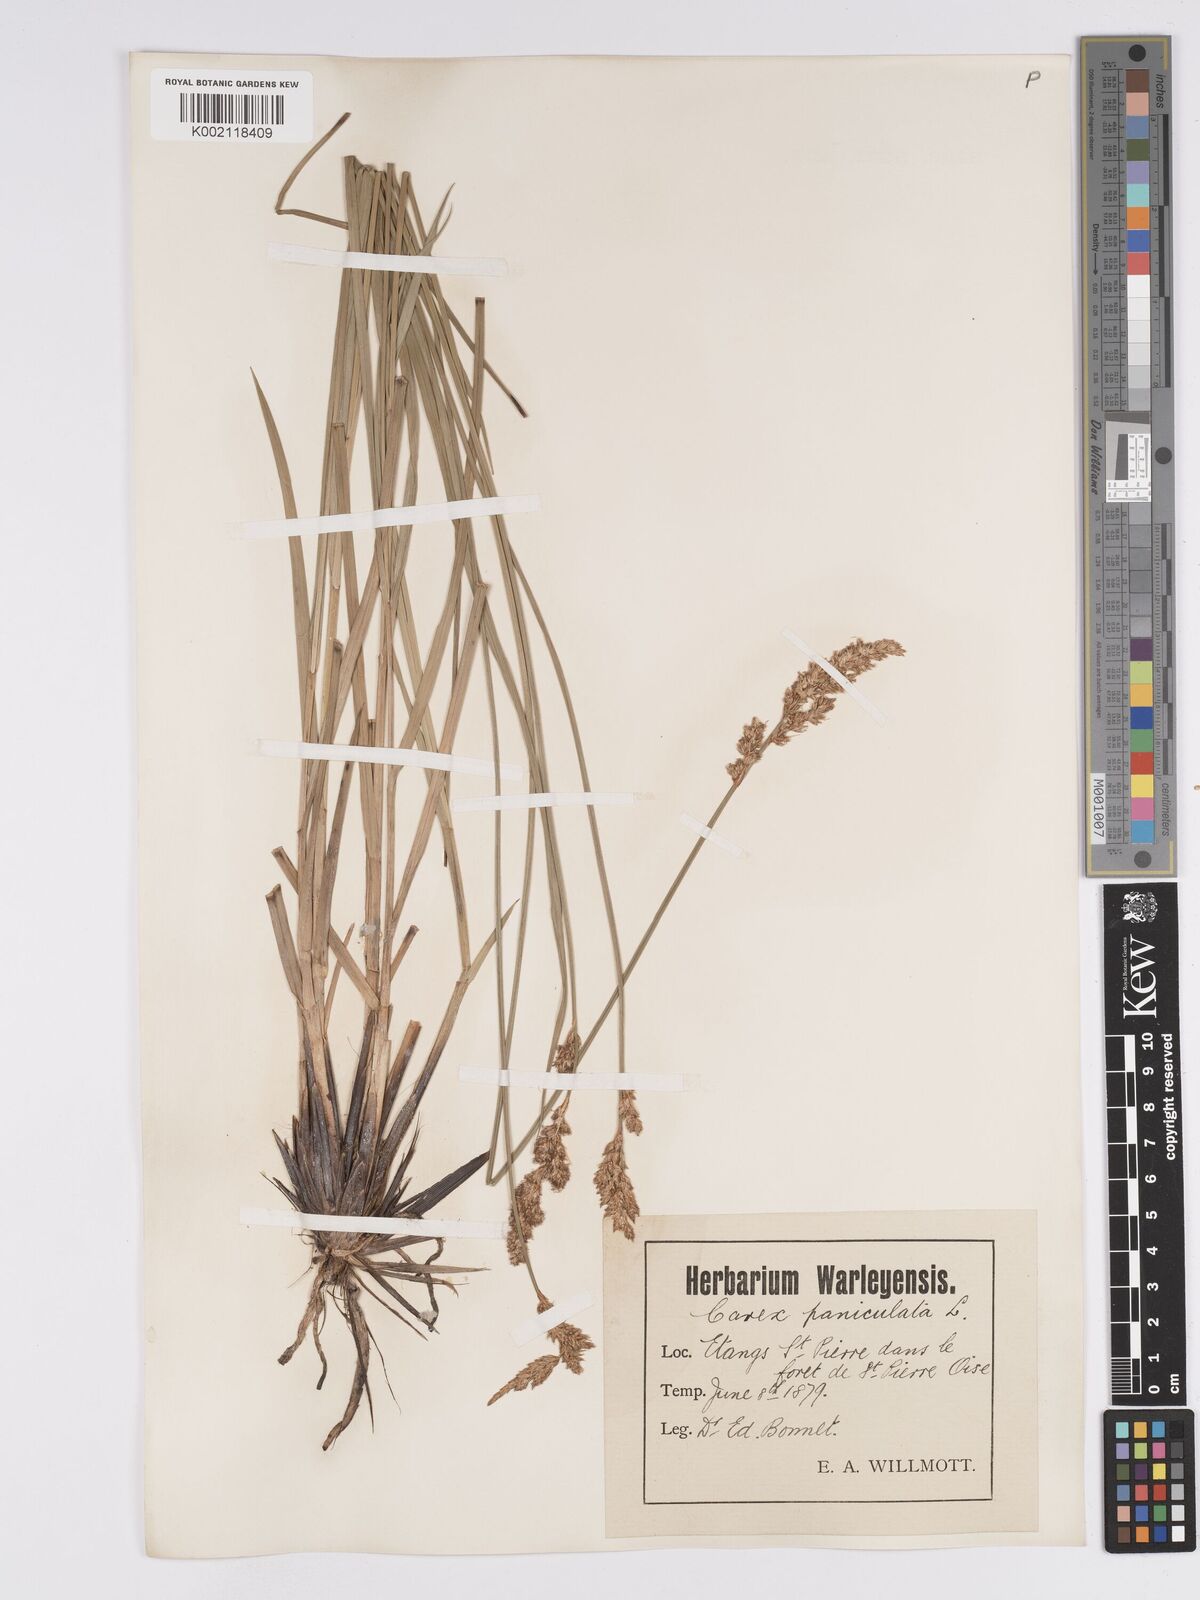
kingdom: Plantae
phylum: Tracheophyta
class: Liliopsida
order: Poales
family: Cyperaceae
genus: Carex
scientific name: Carex paniculata
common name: Greater tussock-sedge
